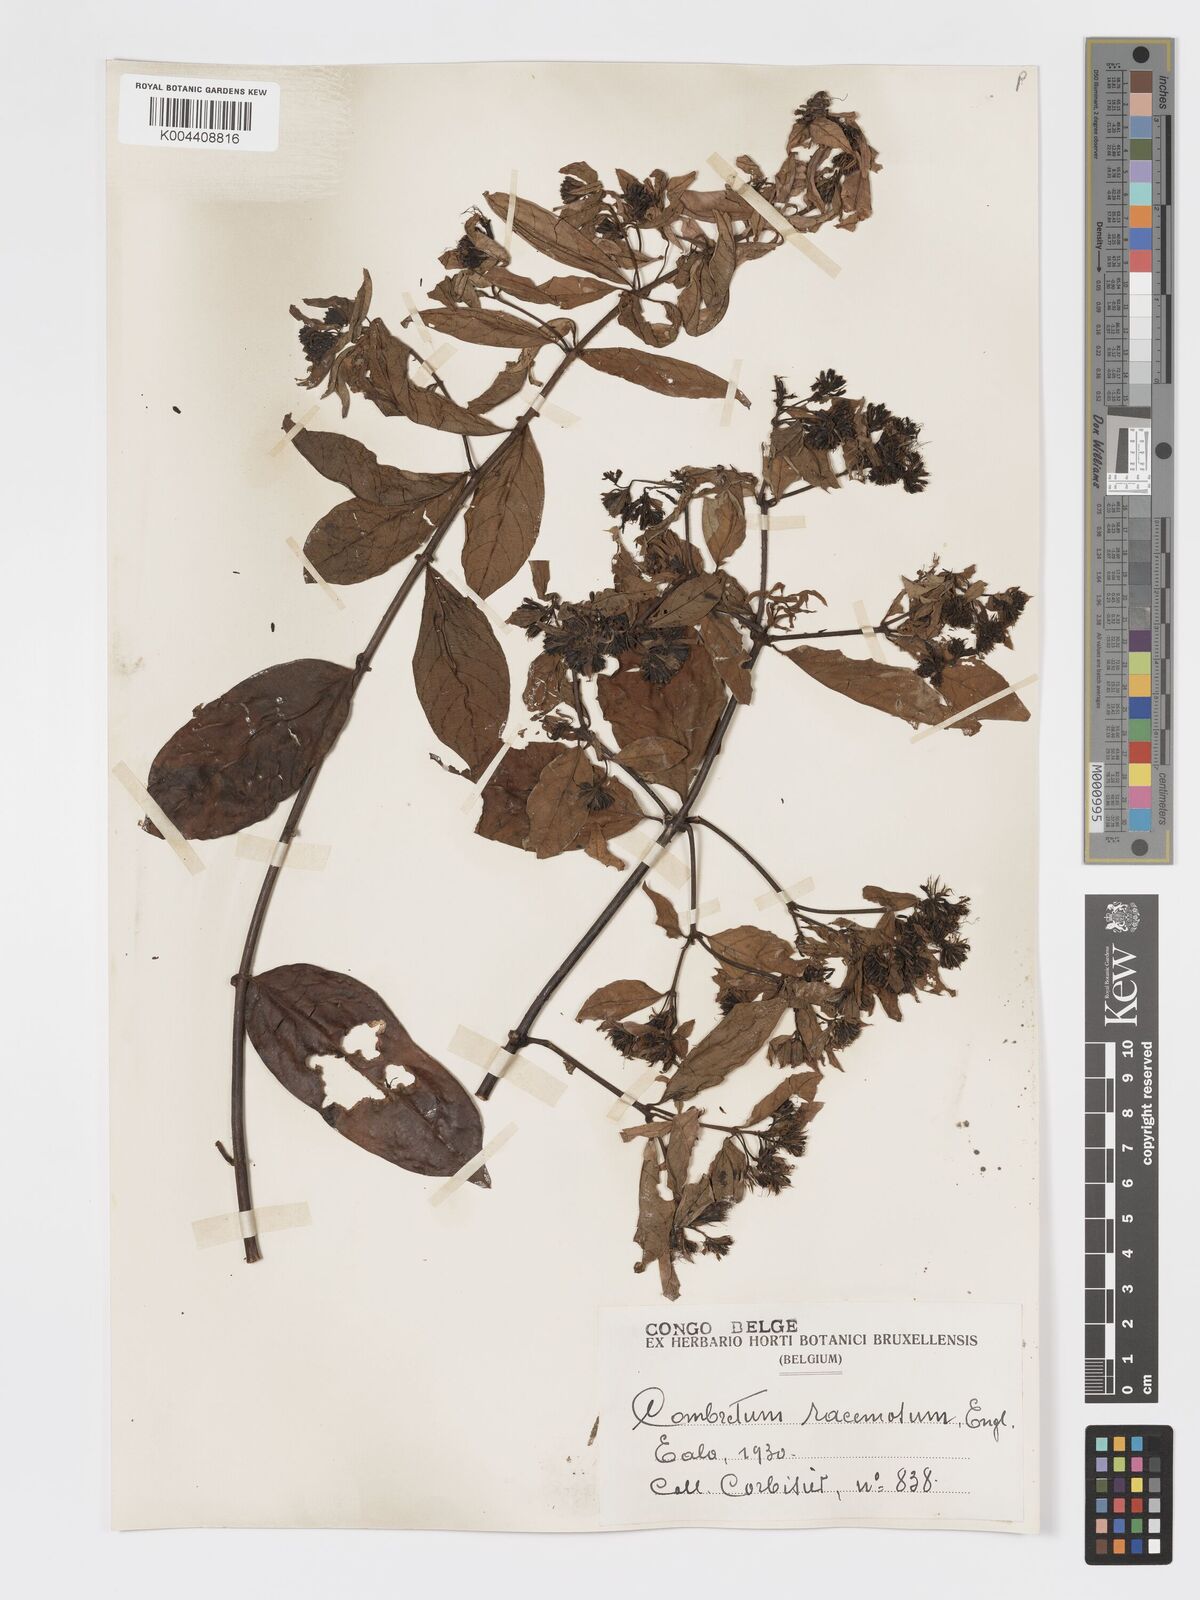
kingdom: Plantae
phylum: Tracheophyta
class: Magnoliopsida
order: Myrtales
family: Combretaceae
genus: Combretum
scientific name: Combretum racemosum
